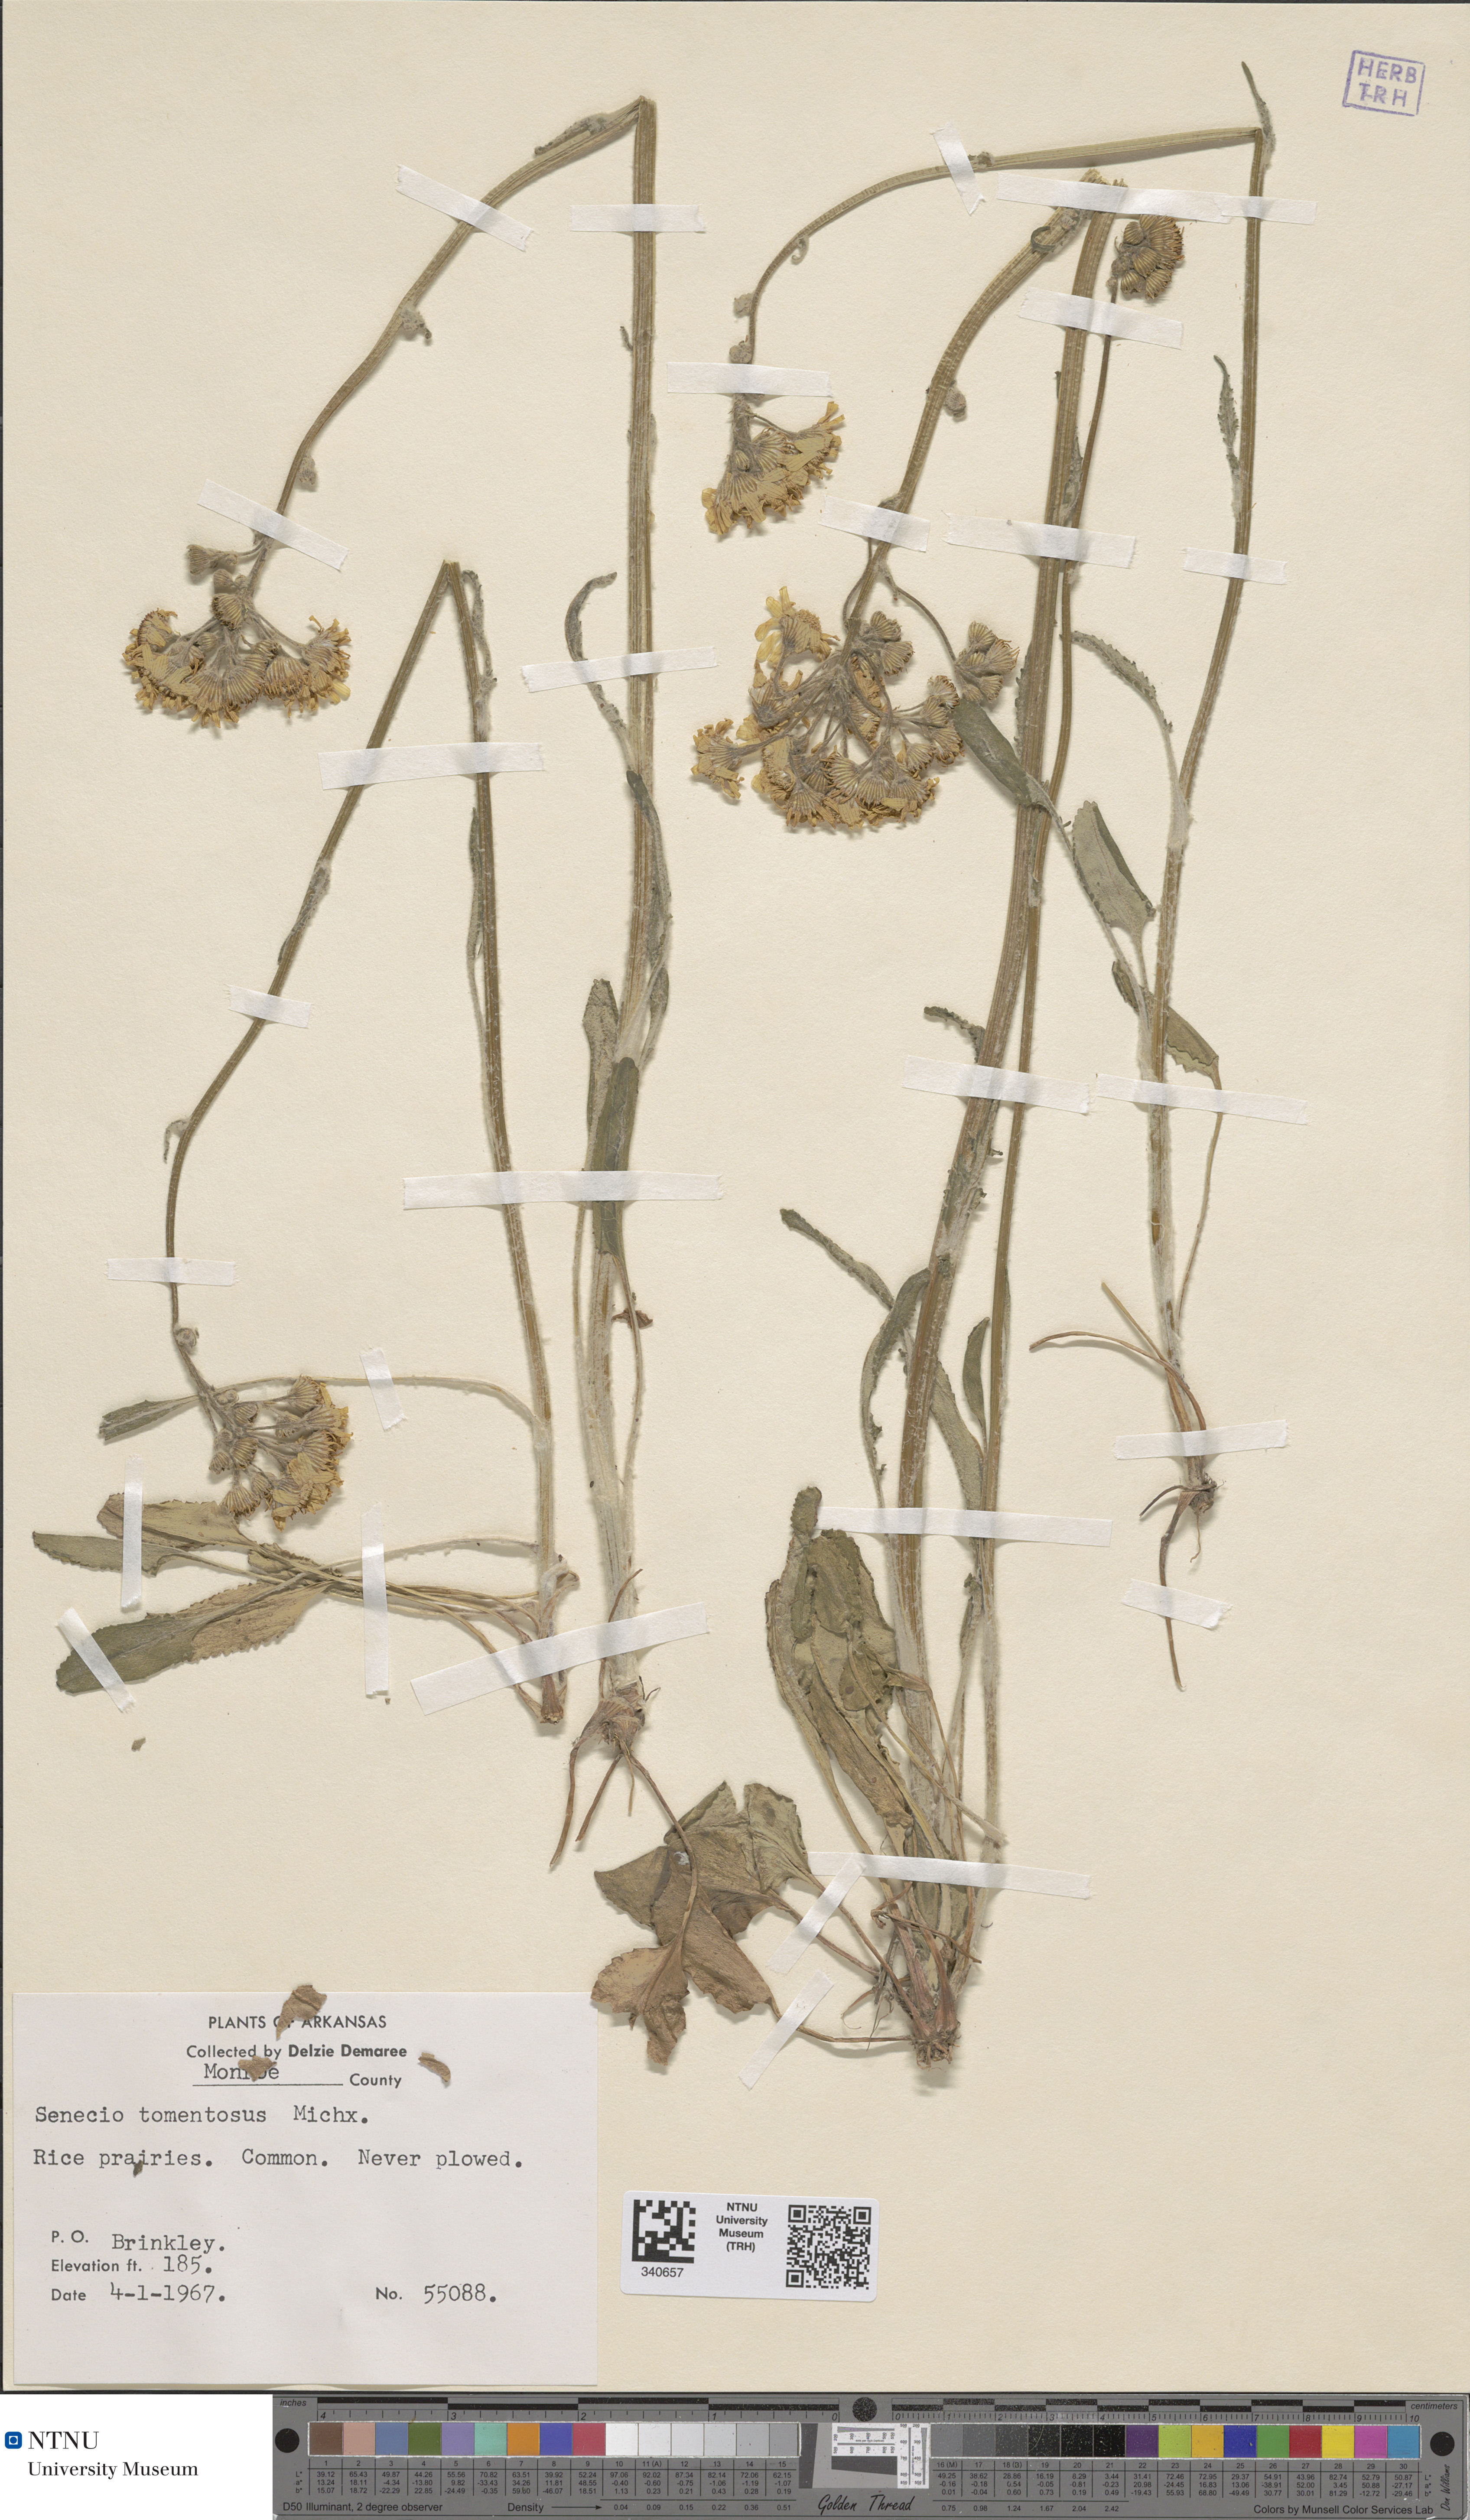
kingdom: Plantae
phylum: Tracheophyta
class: Magnoliopsida
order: Asterales
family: Asteraceae
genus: Packera
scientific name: Packera dubia
